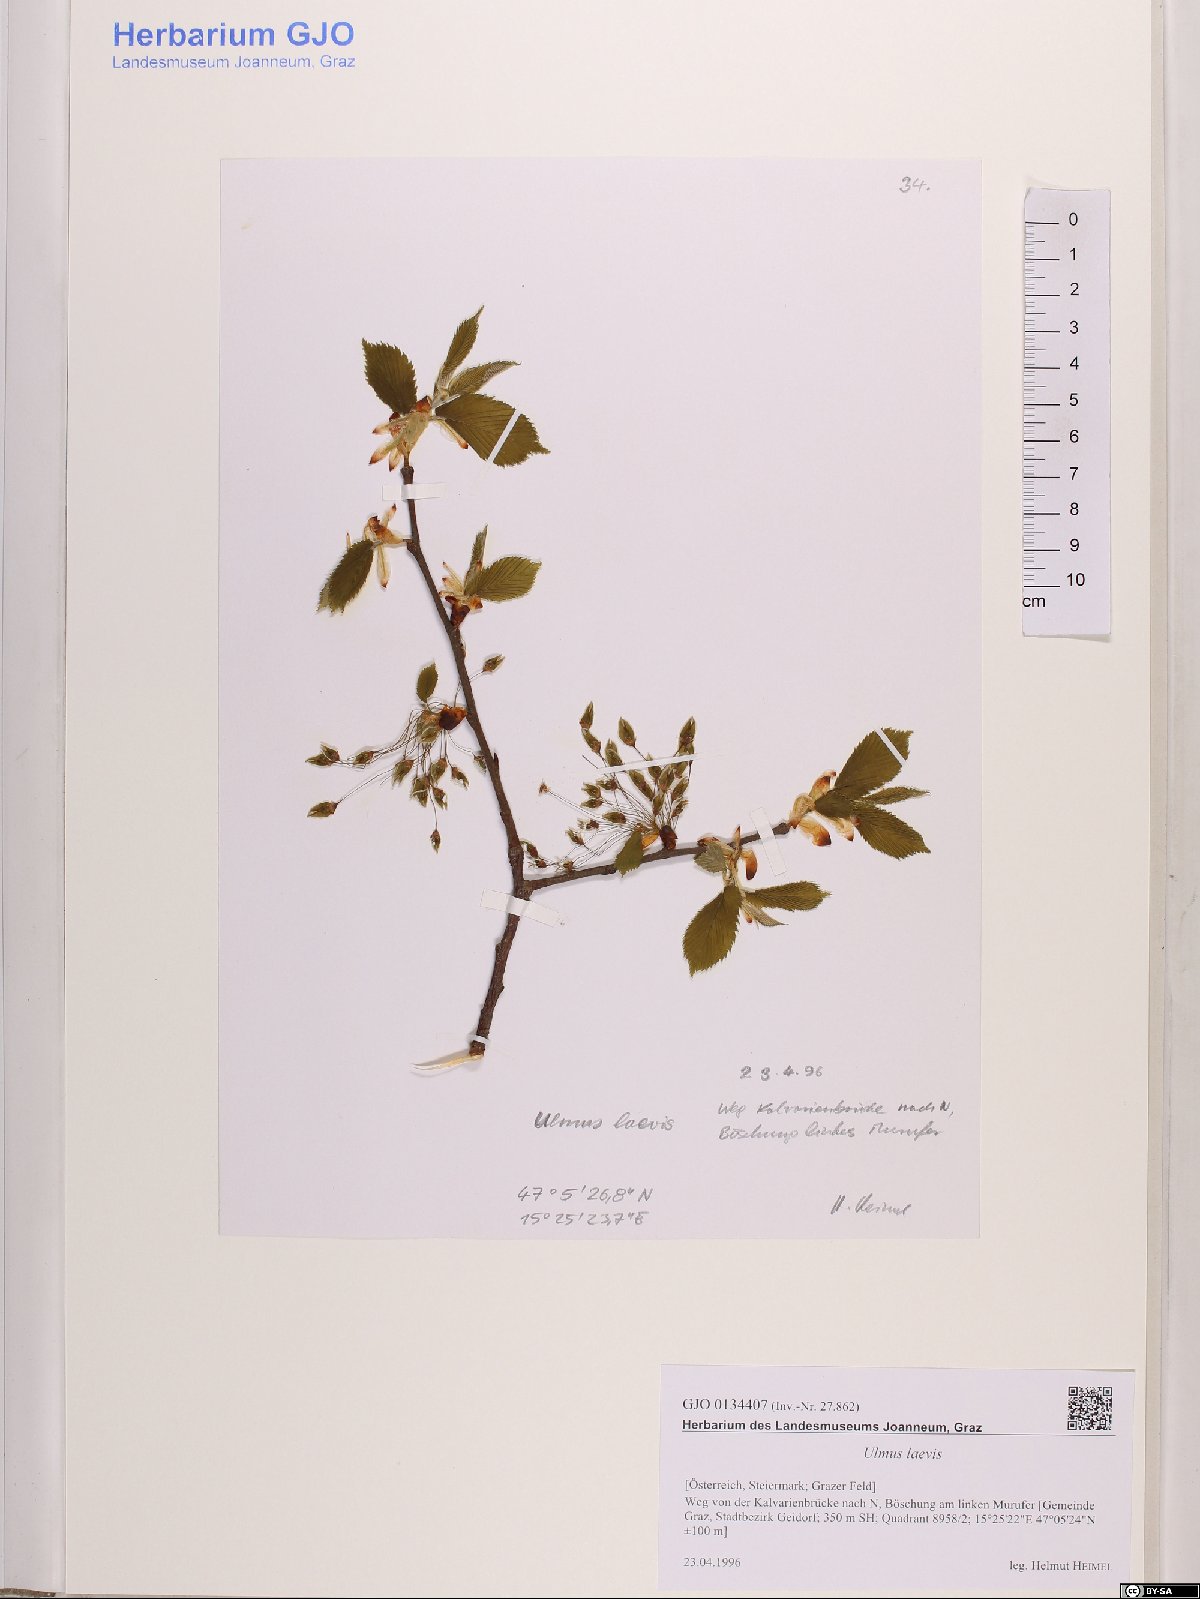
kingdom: Plantae
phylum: Tracheophyta
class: Magnoliopsida
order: Rosales
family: Ulmaceae
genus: Ulmus
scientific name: Ulmus laevis
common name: European white-elm
